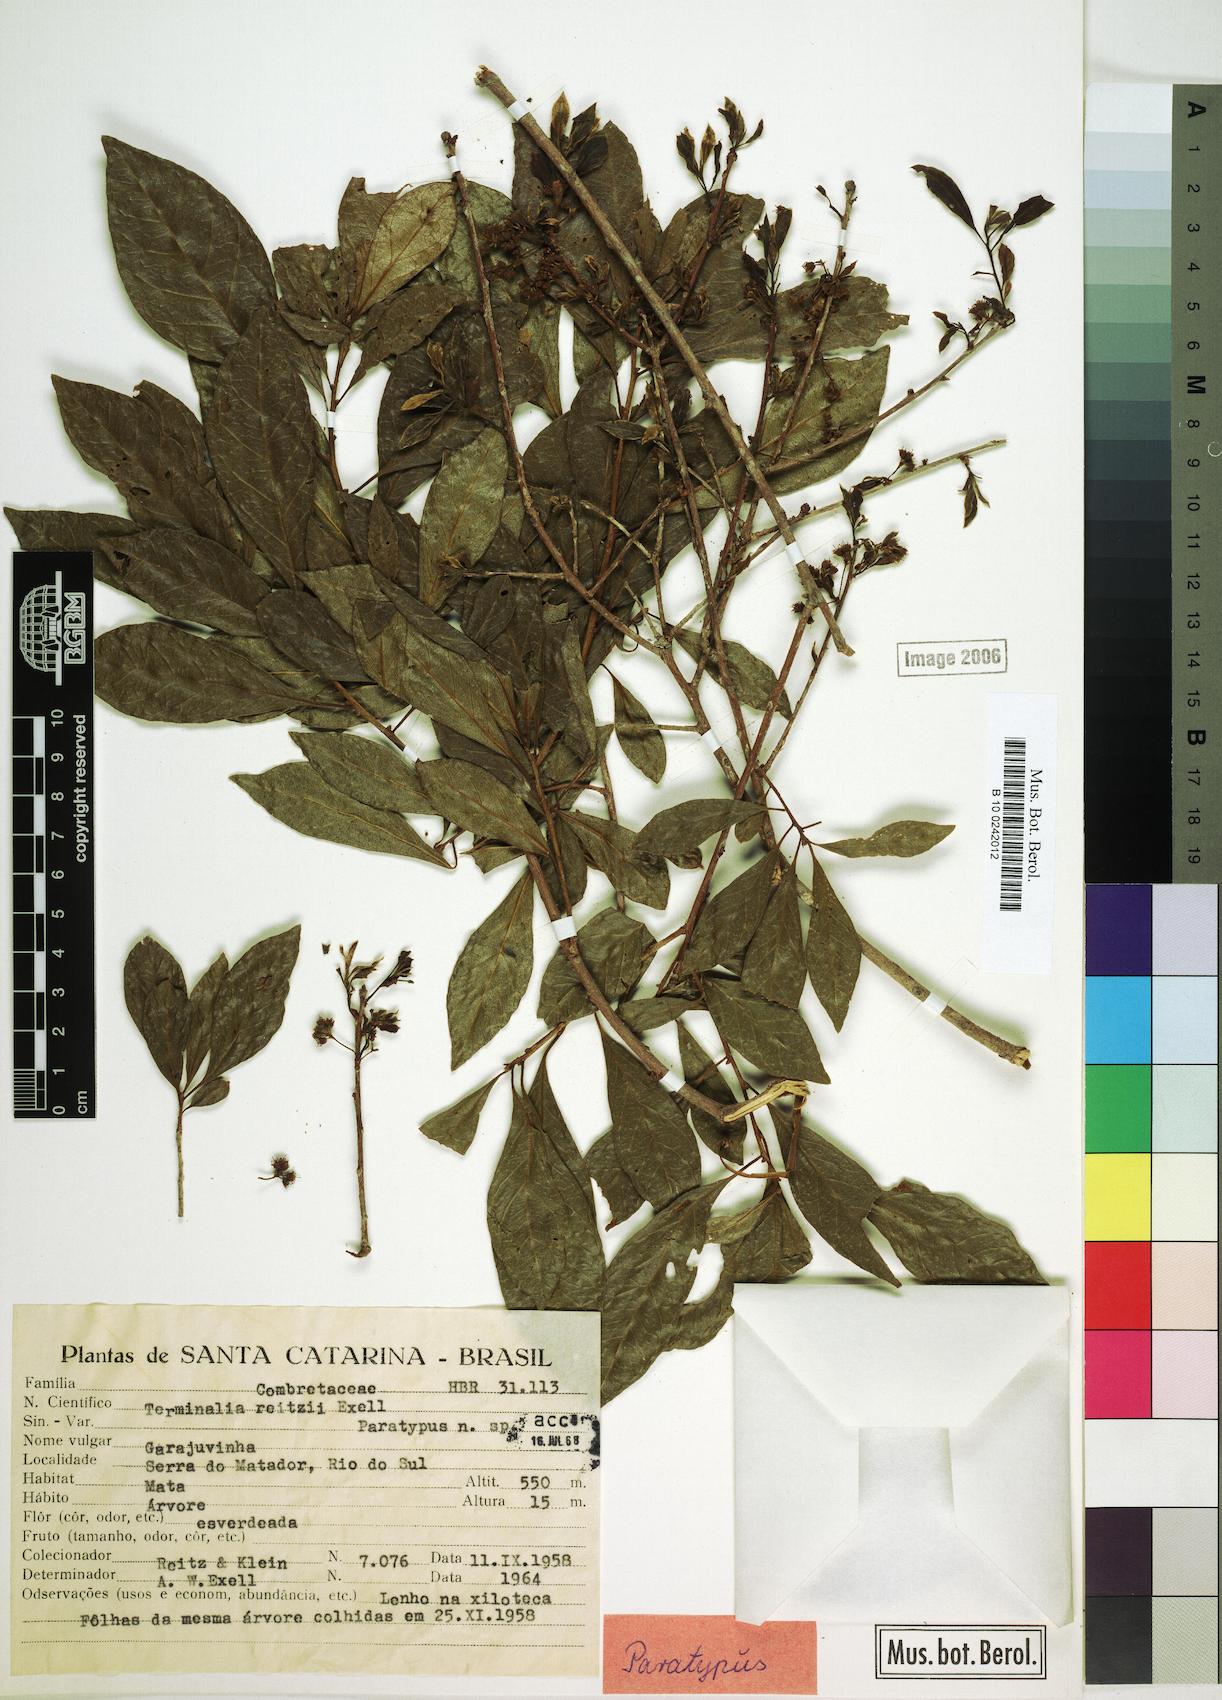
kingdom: Plantae
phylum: Tracheophyta
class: Magnoliopsida
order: Myrtales
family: Combretaceae
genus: Terminalia
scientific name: Terminalia reitzii
